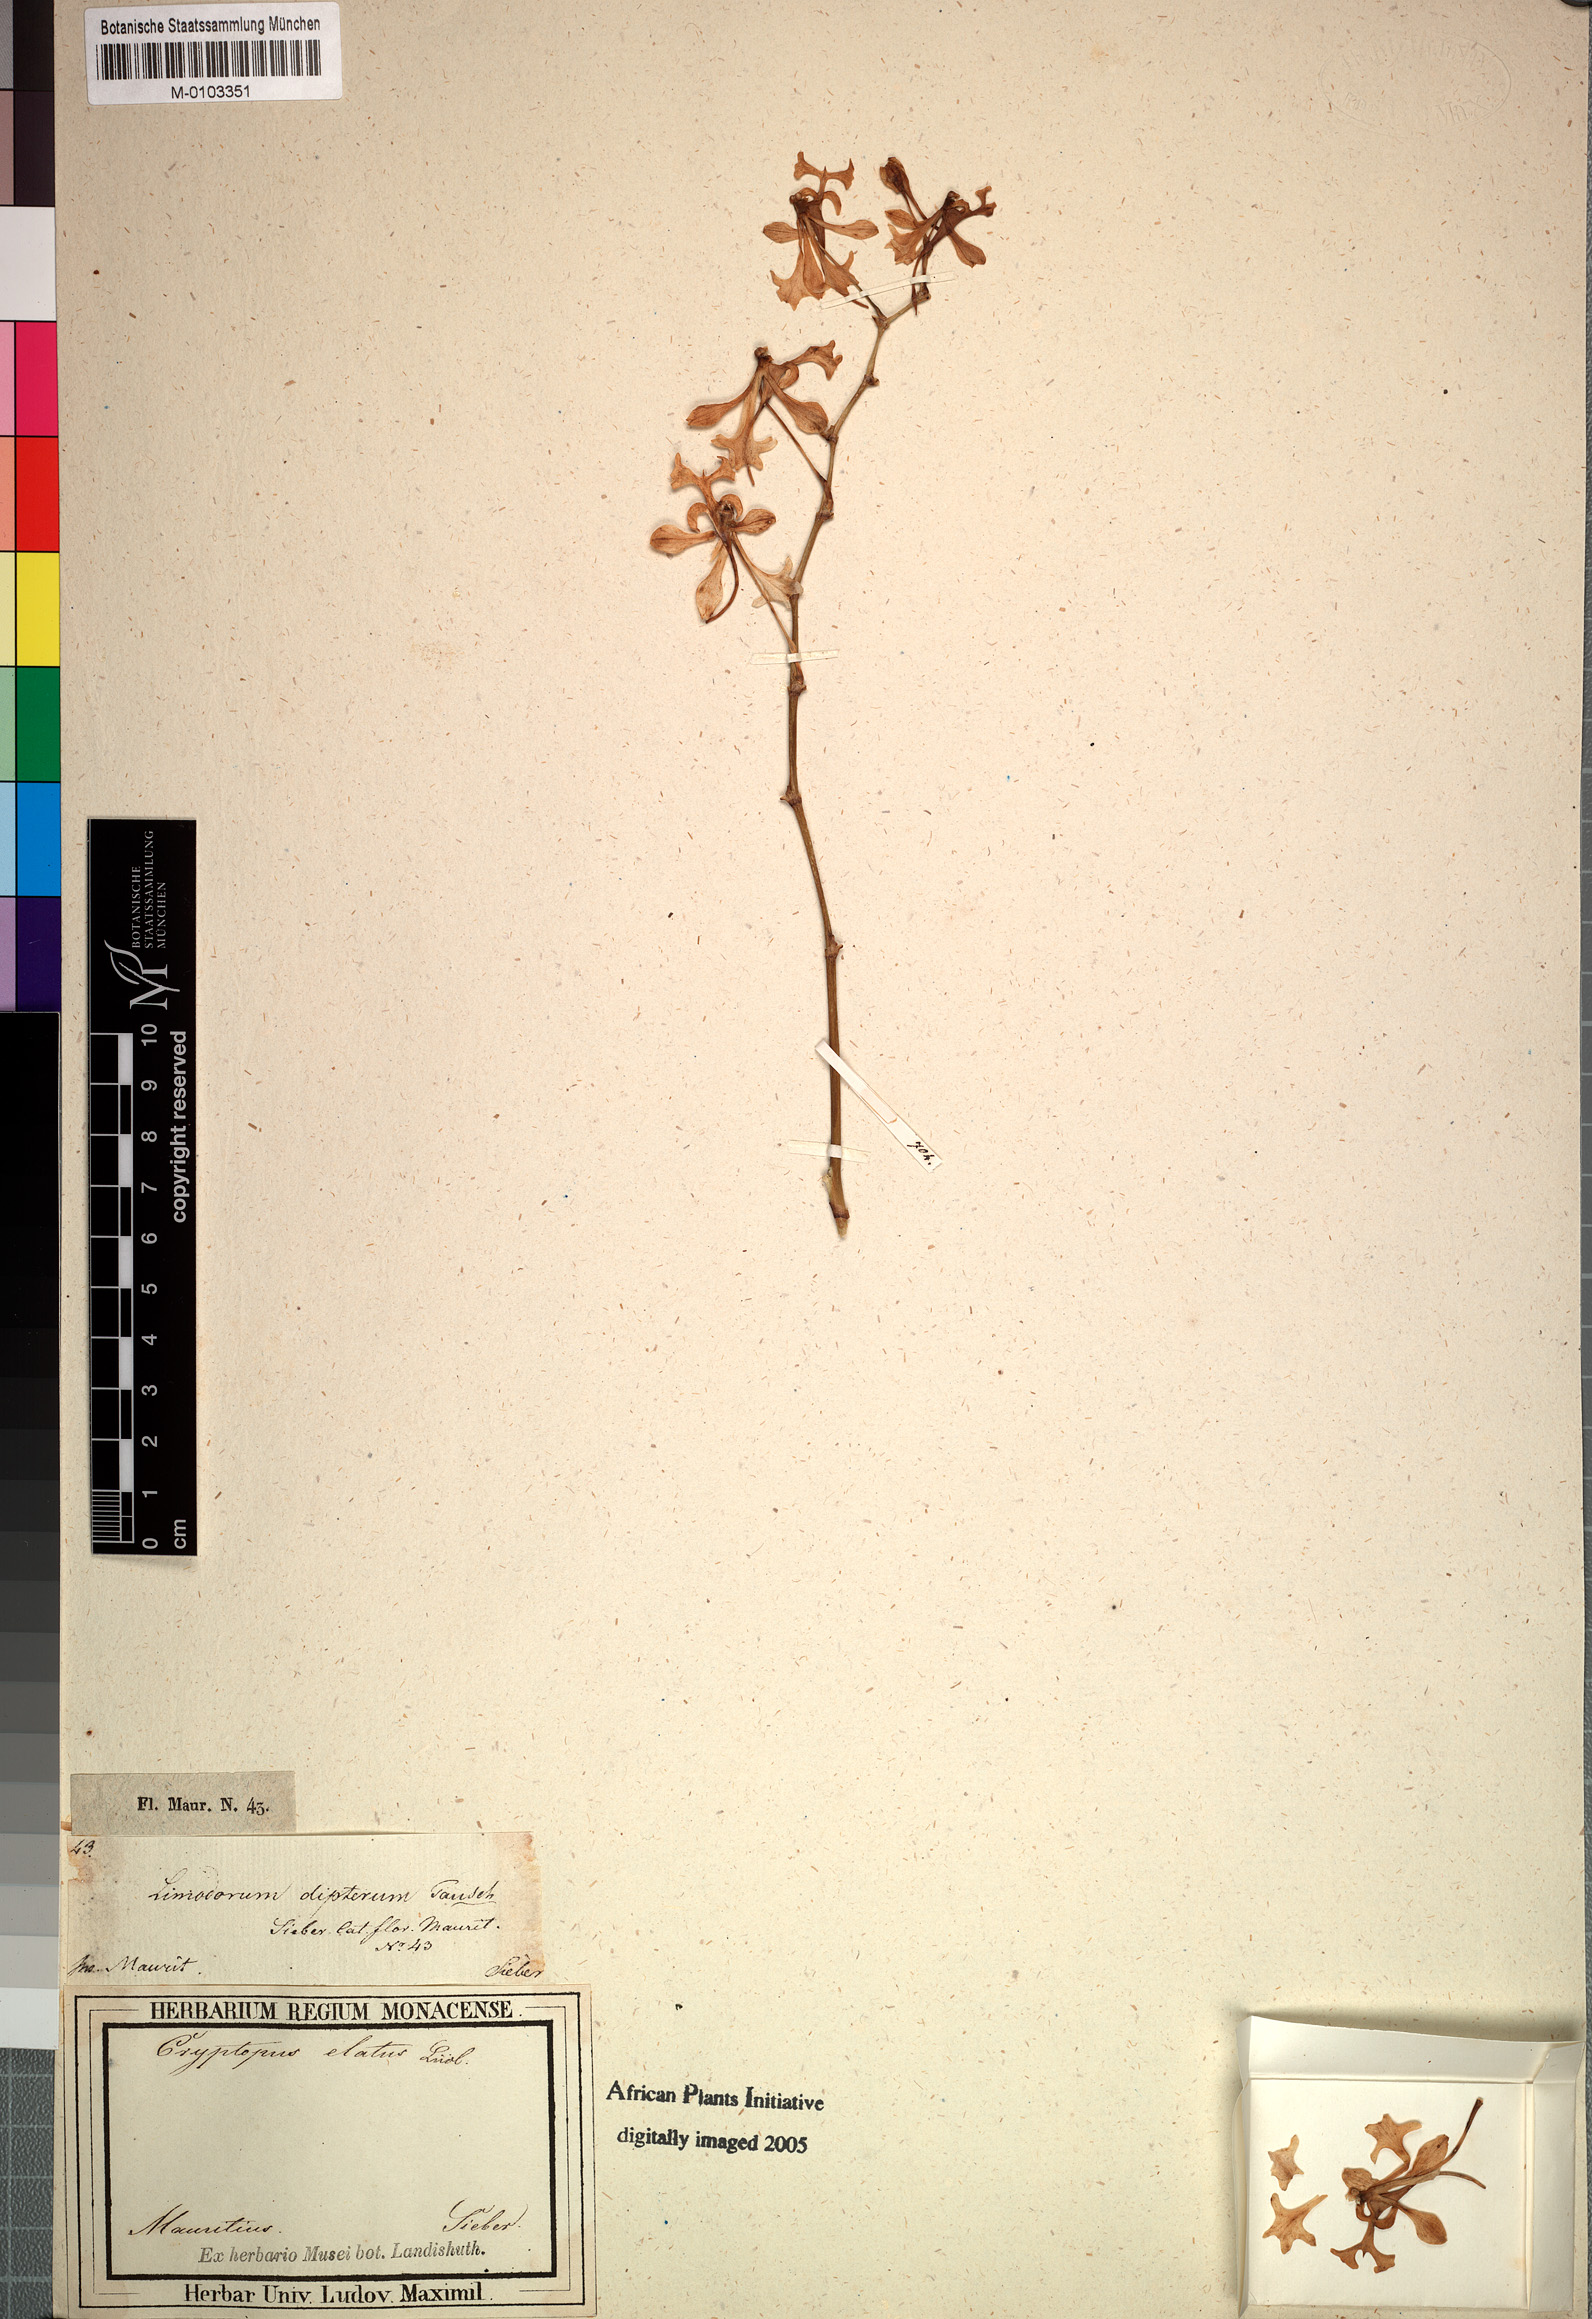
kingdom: Plantae
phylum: Tracheophyta
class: Liliopsida
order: Asparagales
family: Orchidaceae
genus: Cryptopus
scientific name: Cryptopus elatus
